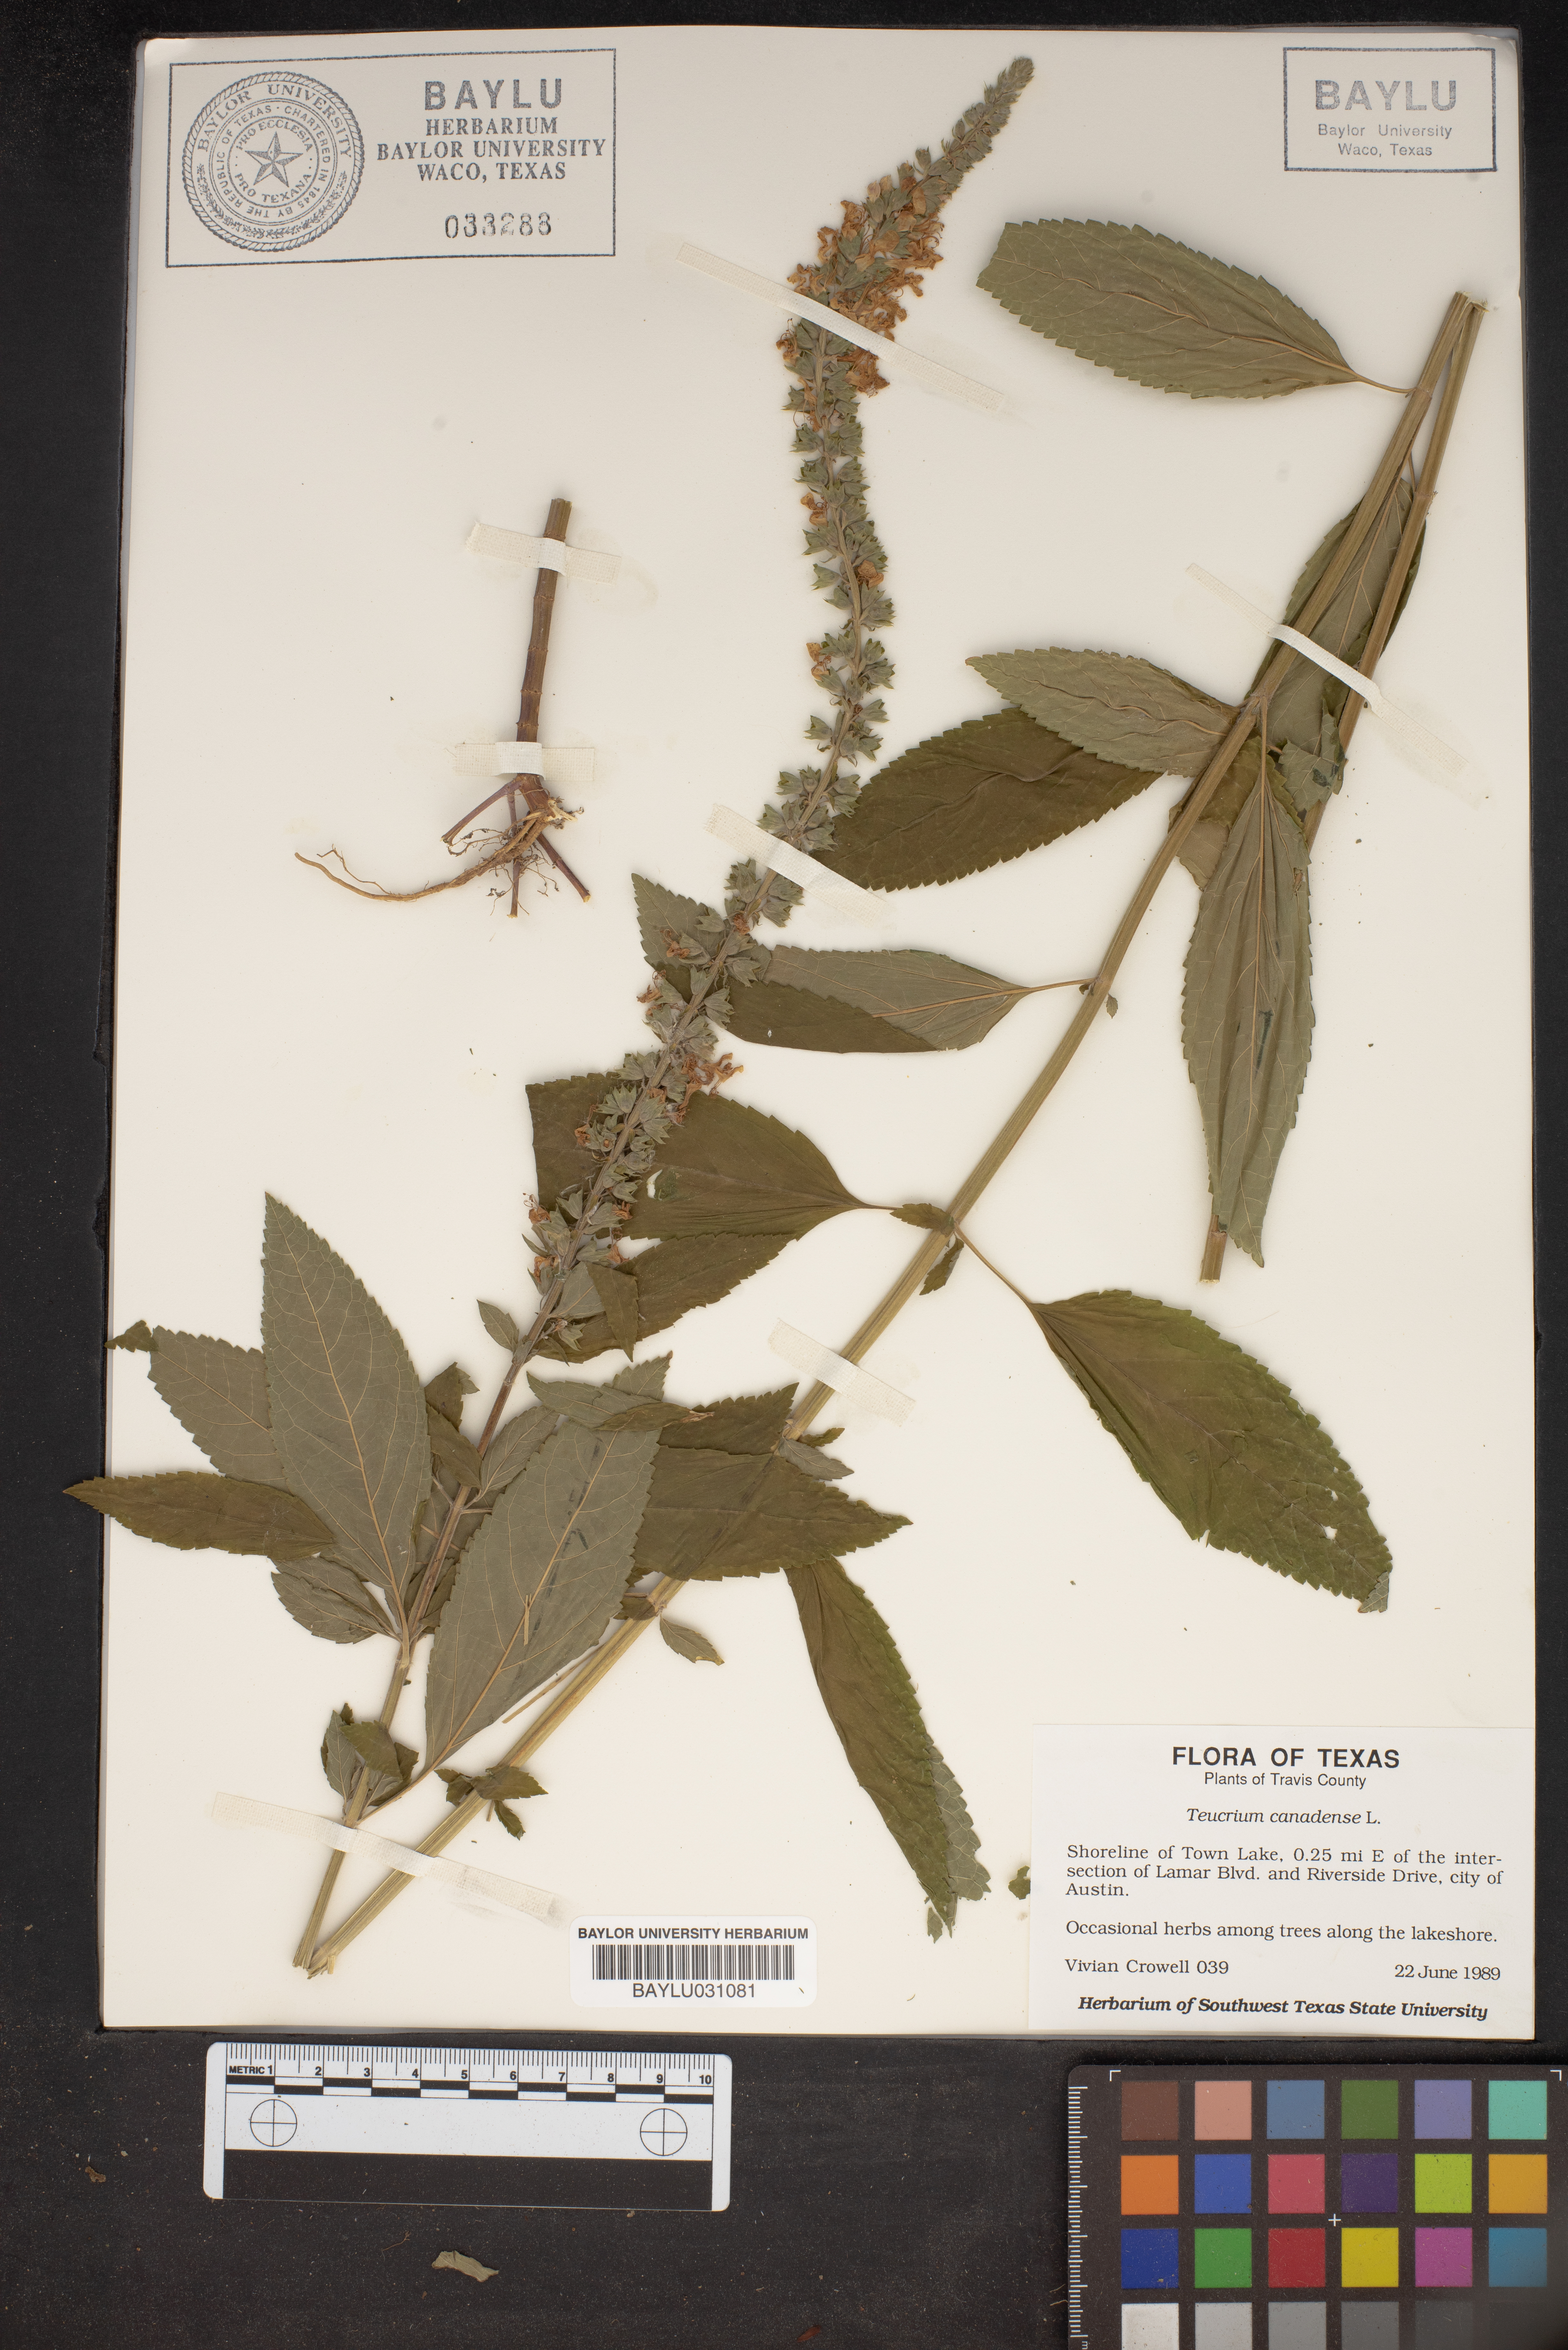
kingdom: Plantae
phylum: Tracheophyta
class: Magnoliopsida
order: Lamiales
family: Lamiaceae
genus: Teucrium
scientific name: Teucrium canadense
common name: American germander
